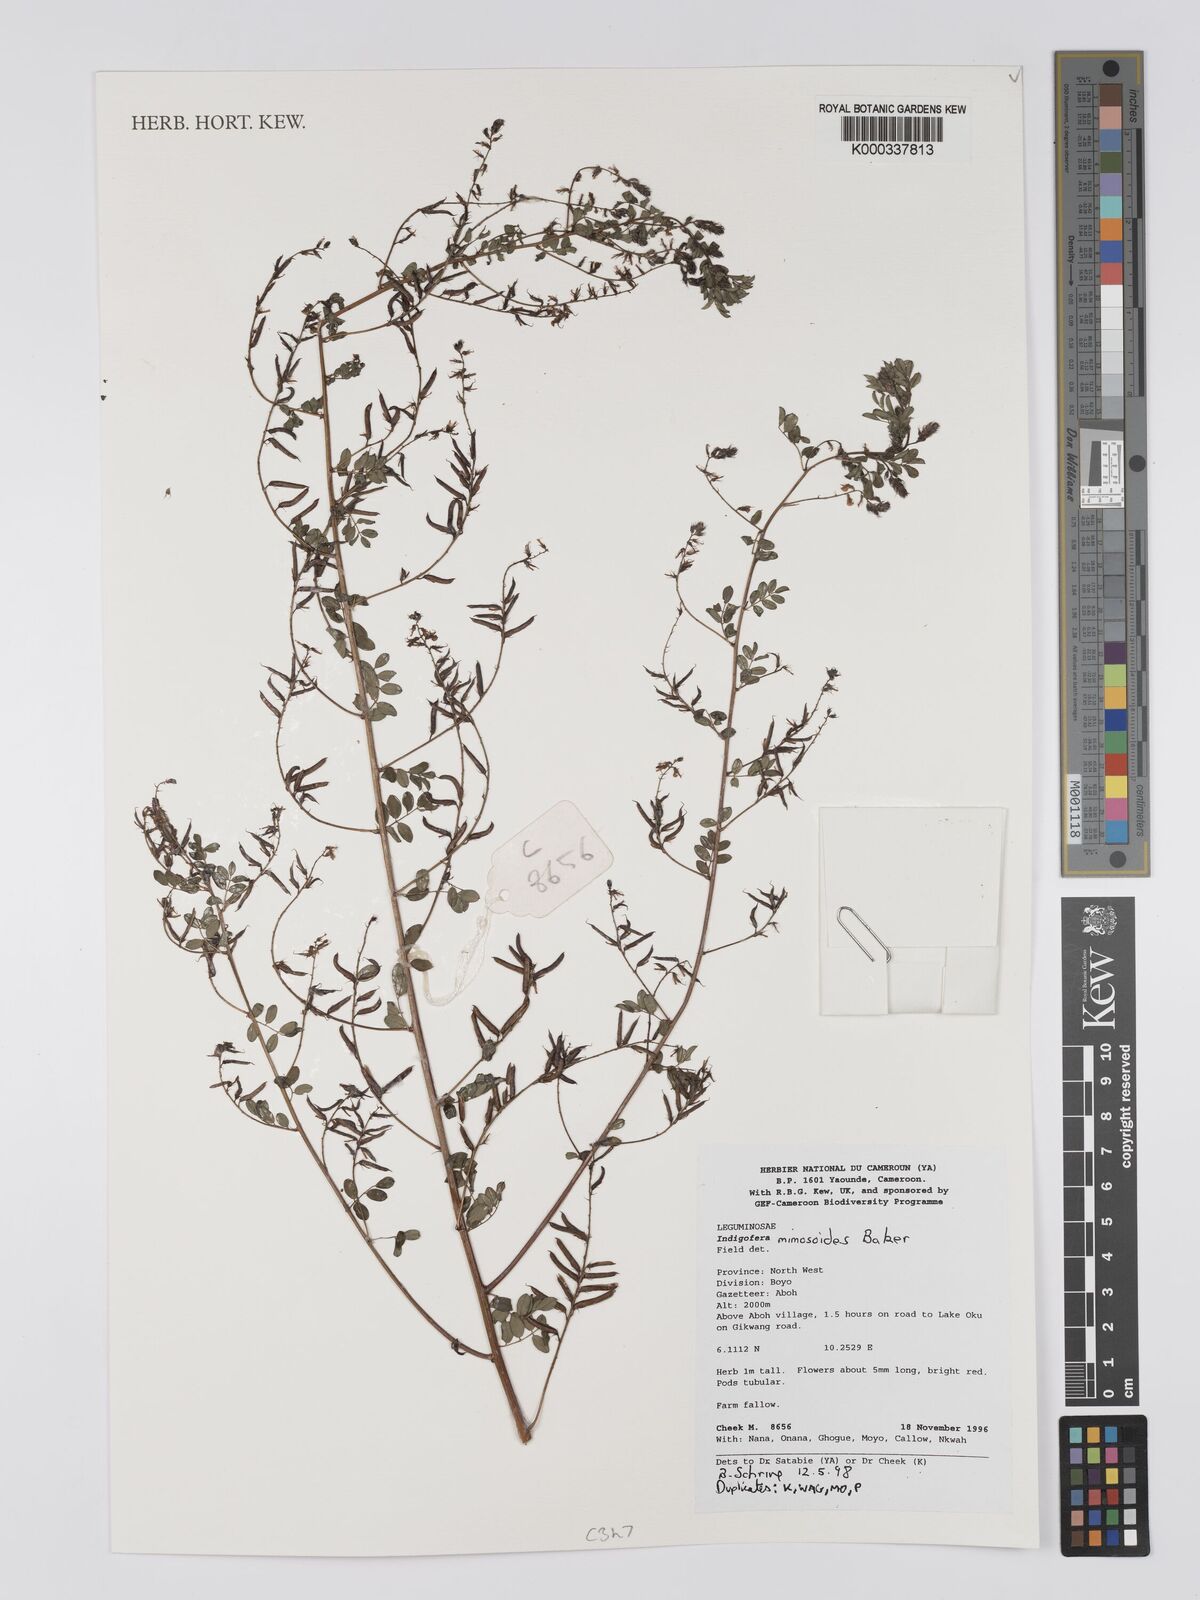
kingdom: Plantae
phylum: Tracheophyta
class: Magnoliopsida
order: Fabales
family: Fabaceae
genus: Indigofera
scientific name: Indigofera mimosoides
